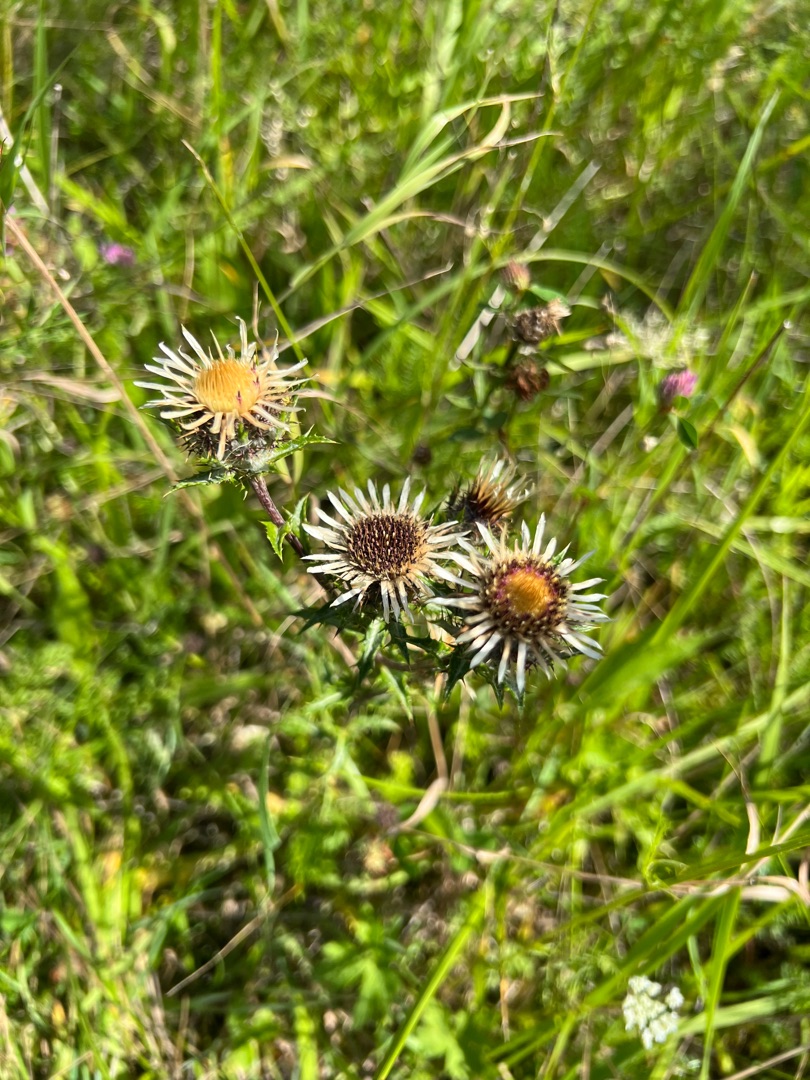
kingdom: Plantae
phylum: Tracheophyta
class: Magnoliopsida
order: Asterales
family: Asteraceae
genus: Carlina
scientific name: Carlina vulgaris
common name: Bakketidsel
